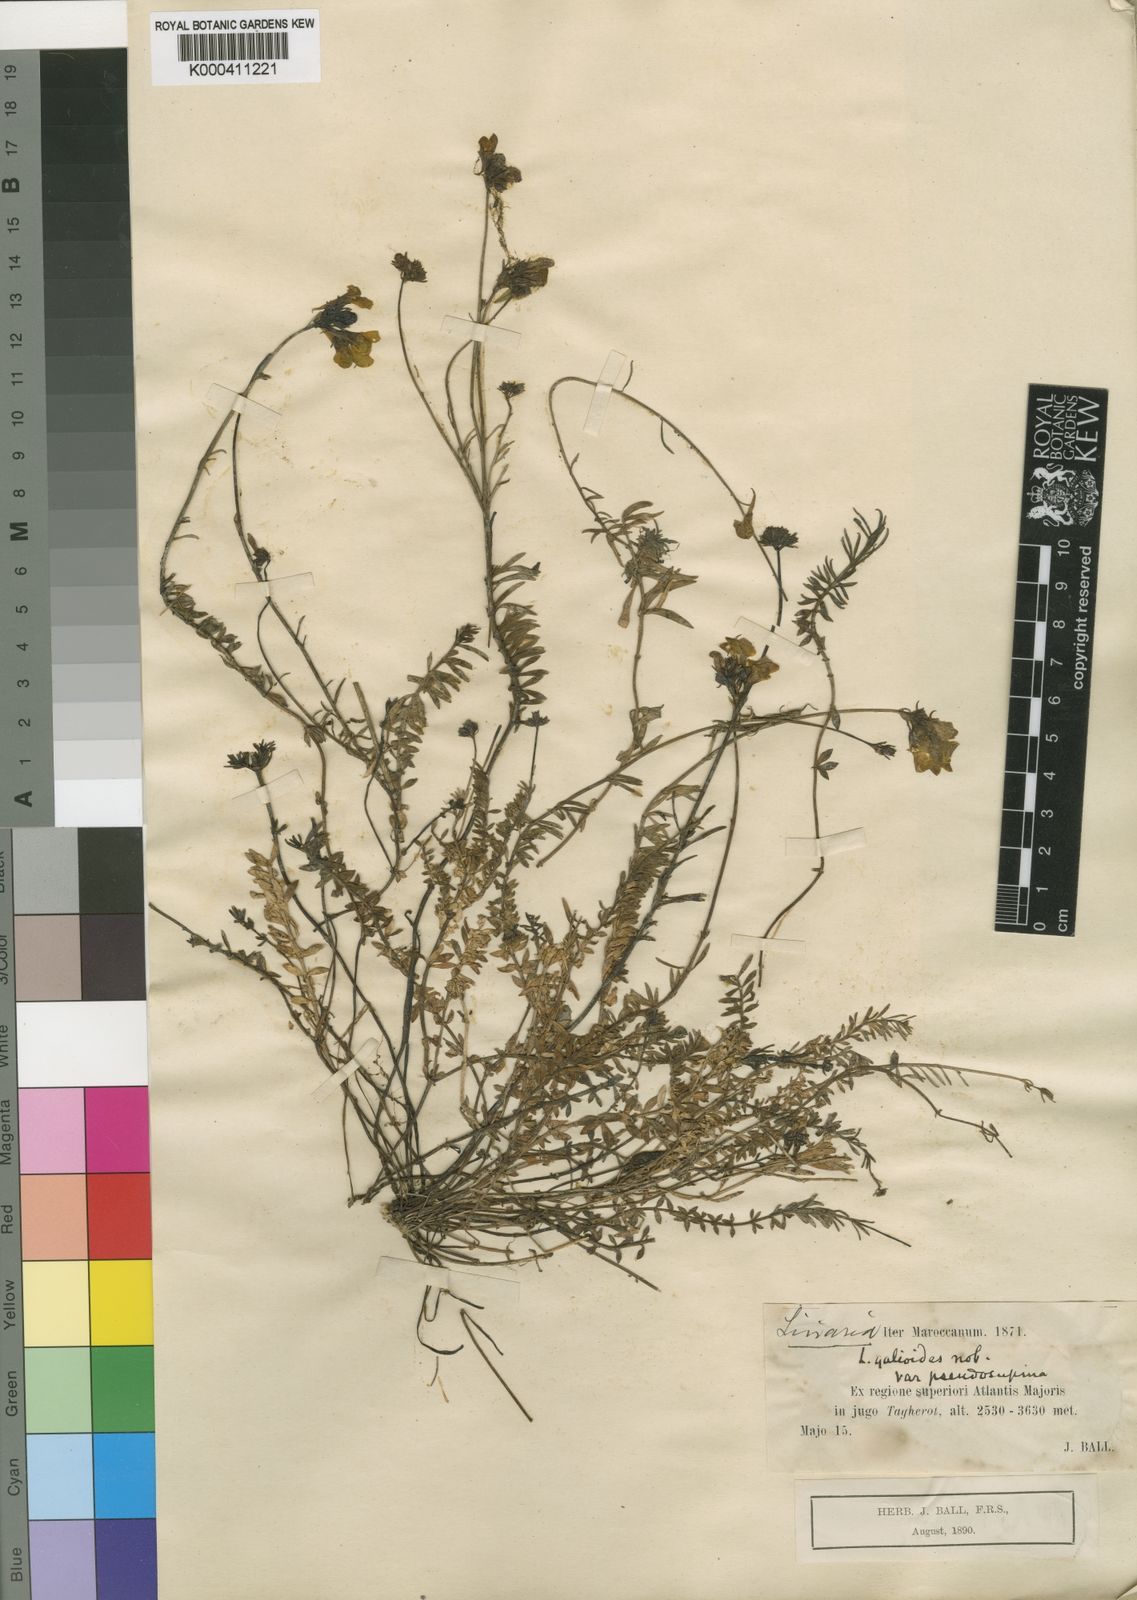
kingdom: Plantae
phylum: Tracheophyta
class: Magnoliopsida
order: Lamiales
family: Plantaginaceae
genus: Linaria
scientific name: Linaria
